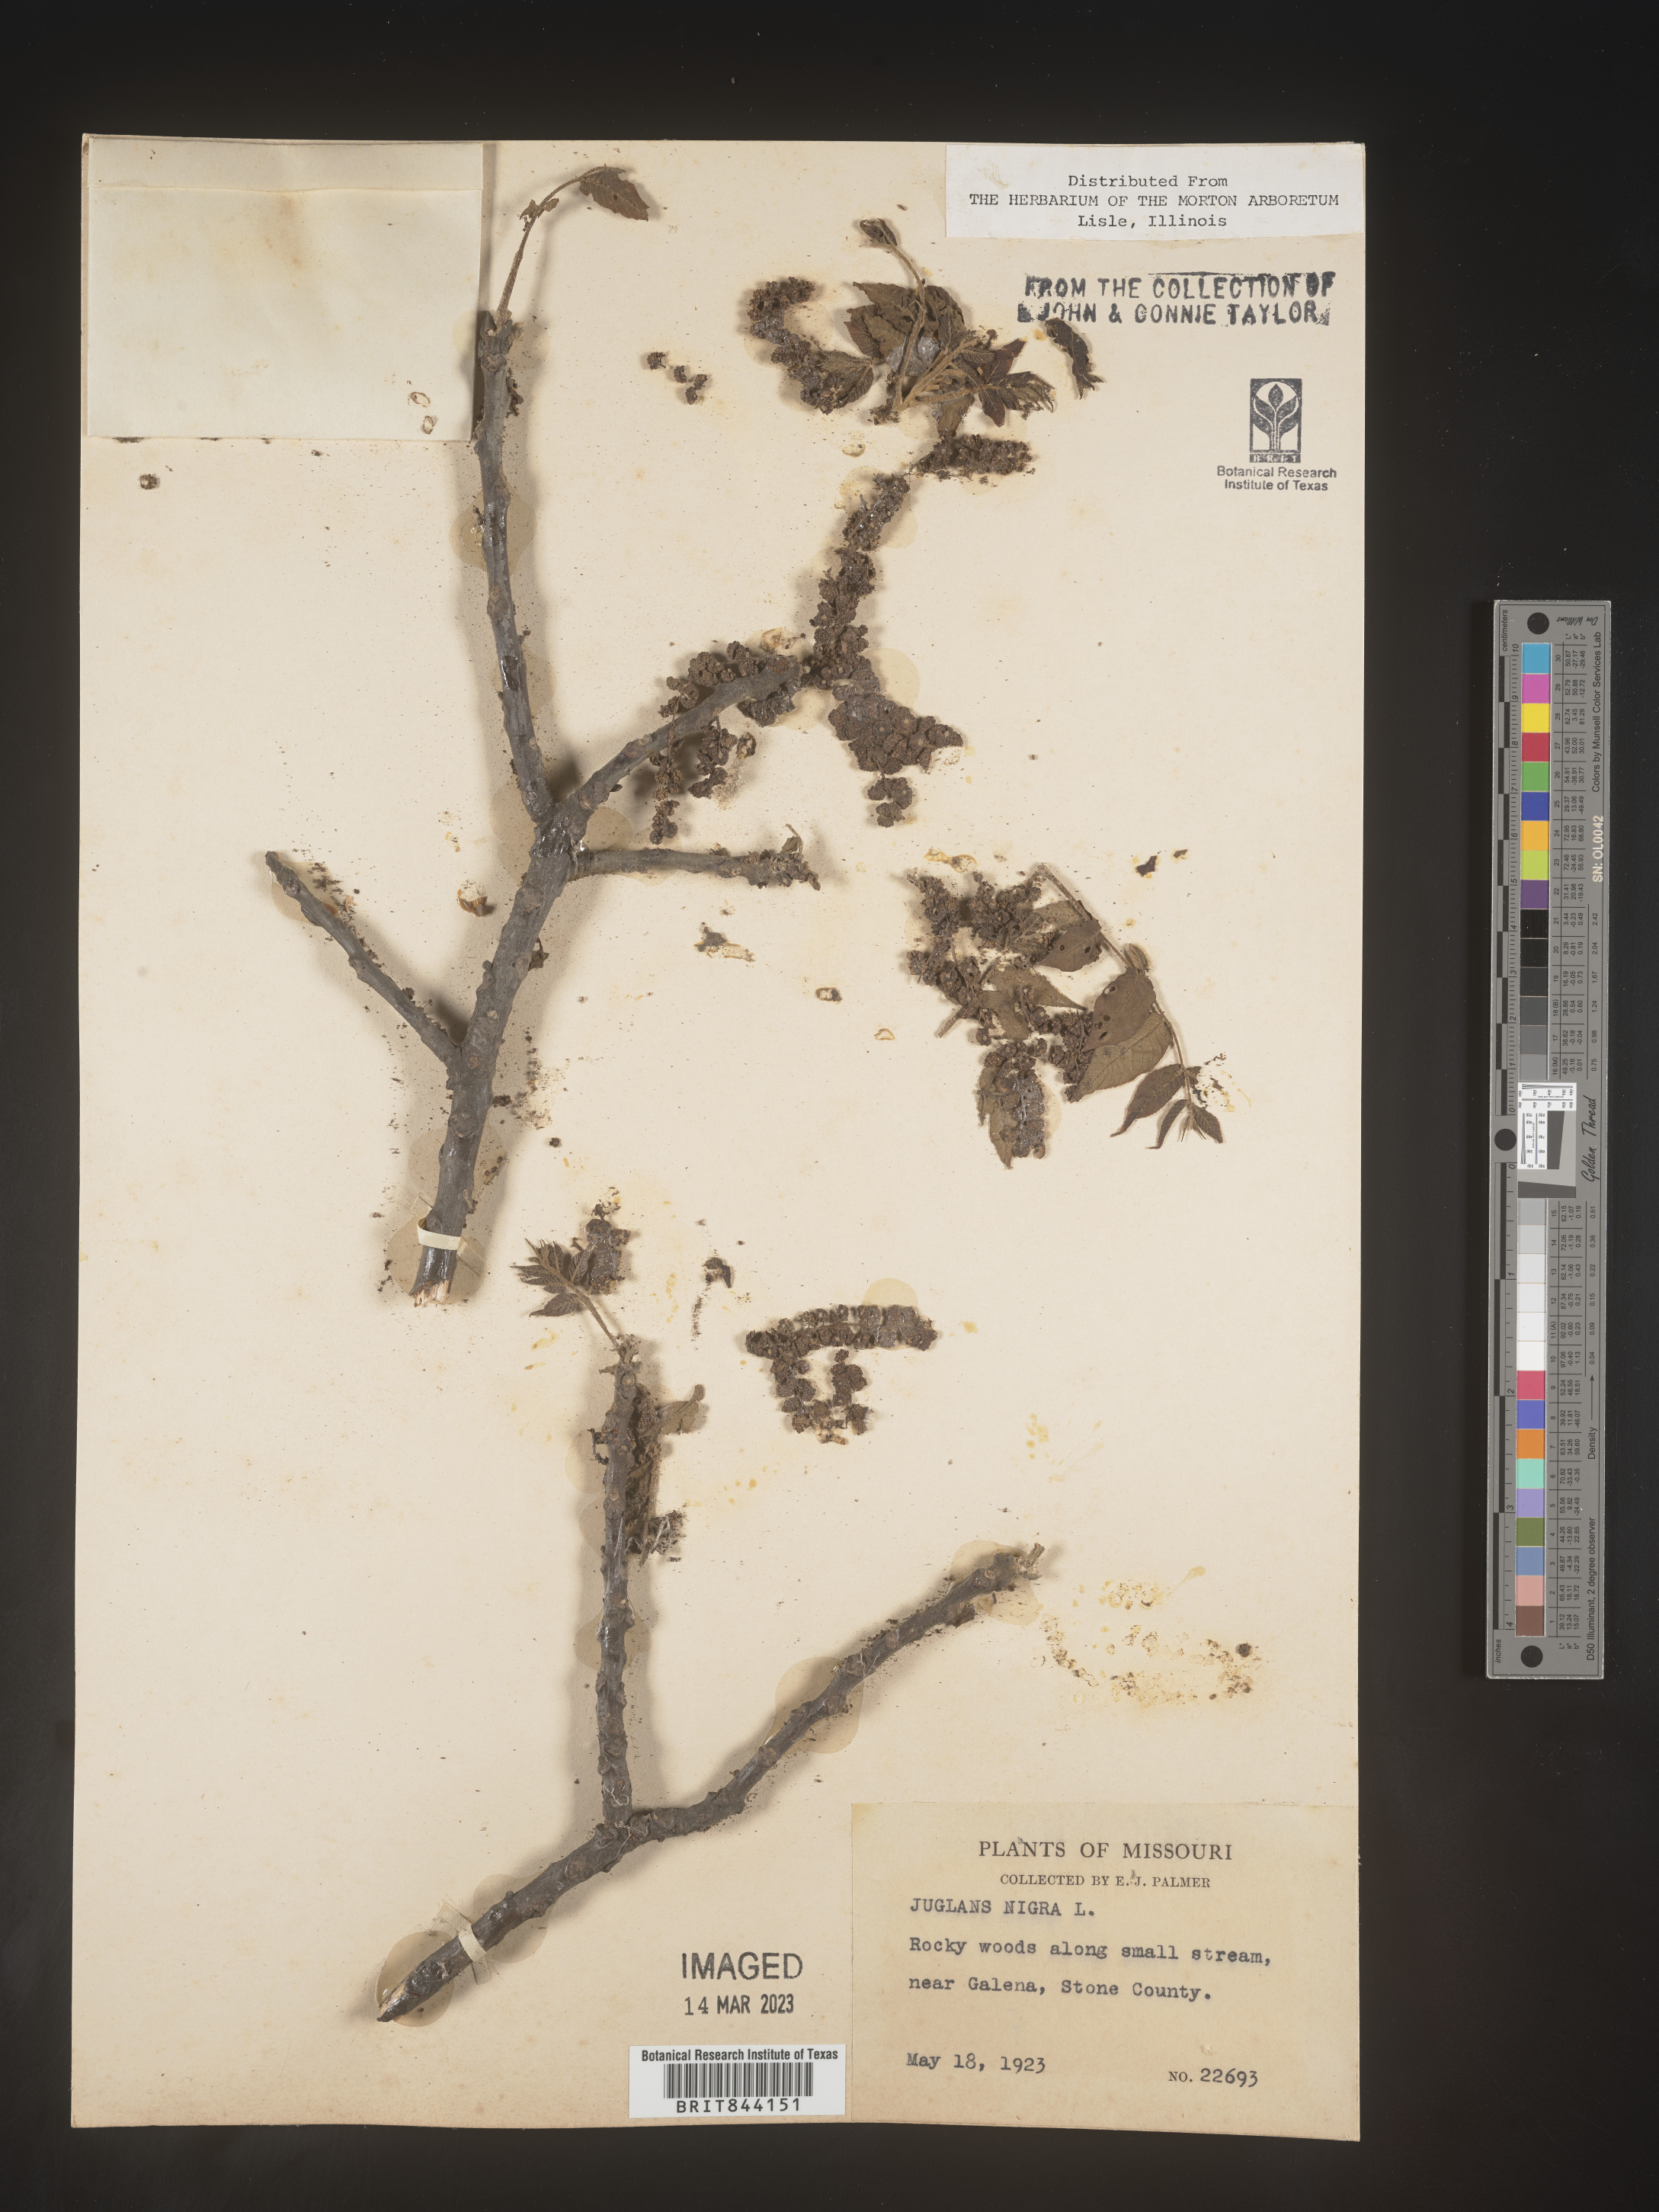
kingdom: Plantae
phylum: Tracheophyta
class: Magnoliopsida
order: Fagales
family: Juglandaceae
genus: Juglans
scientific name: Juglans nigra
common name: Black walnut
